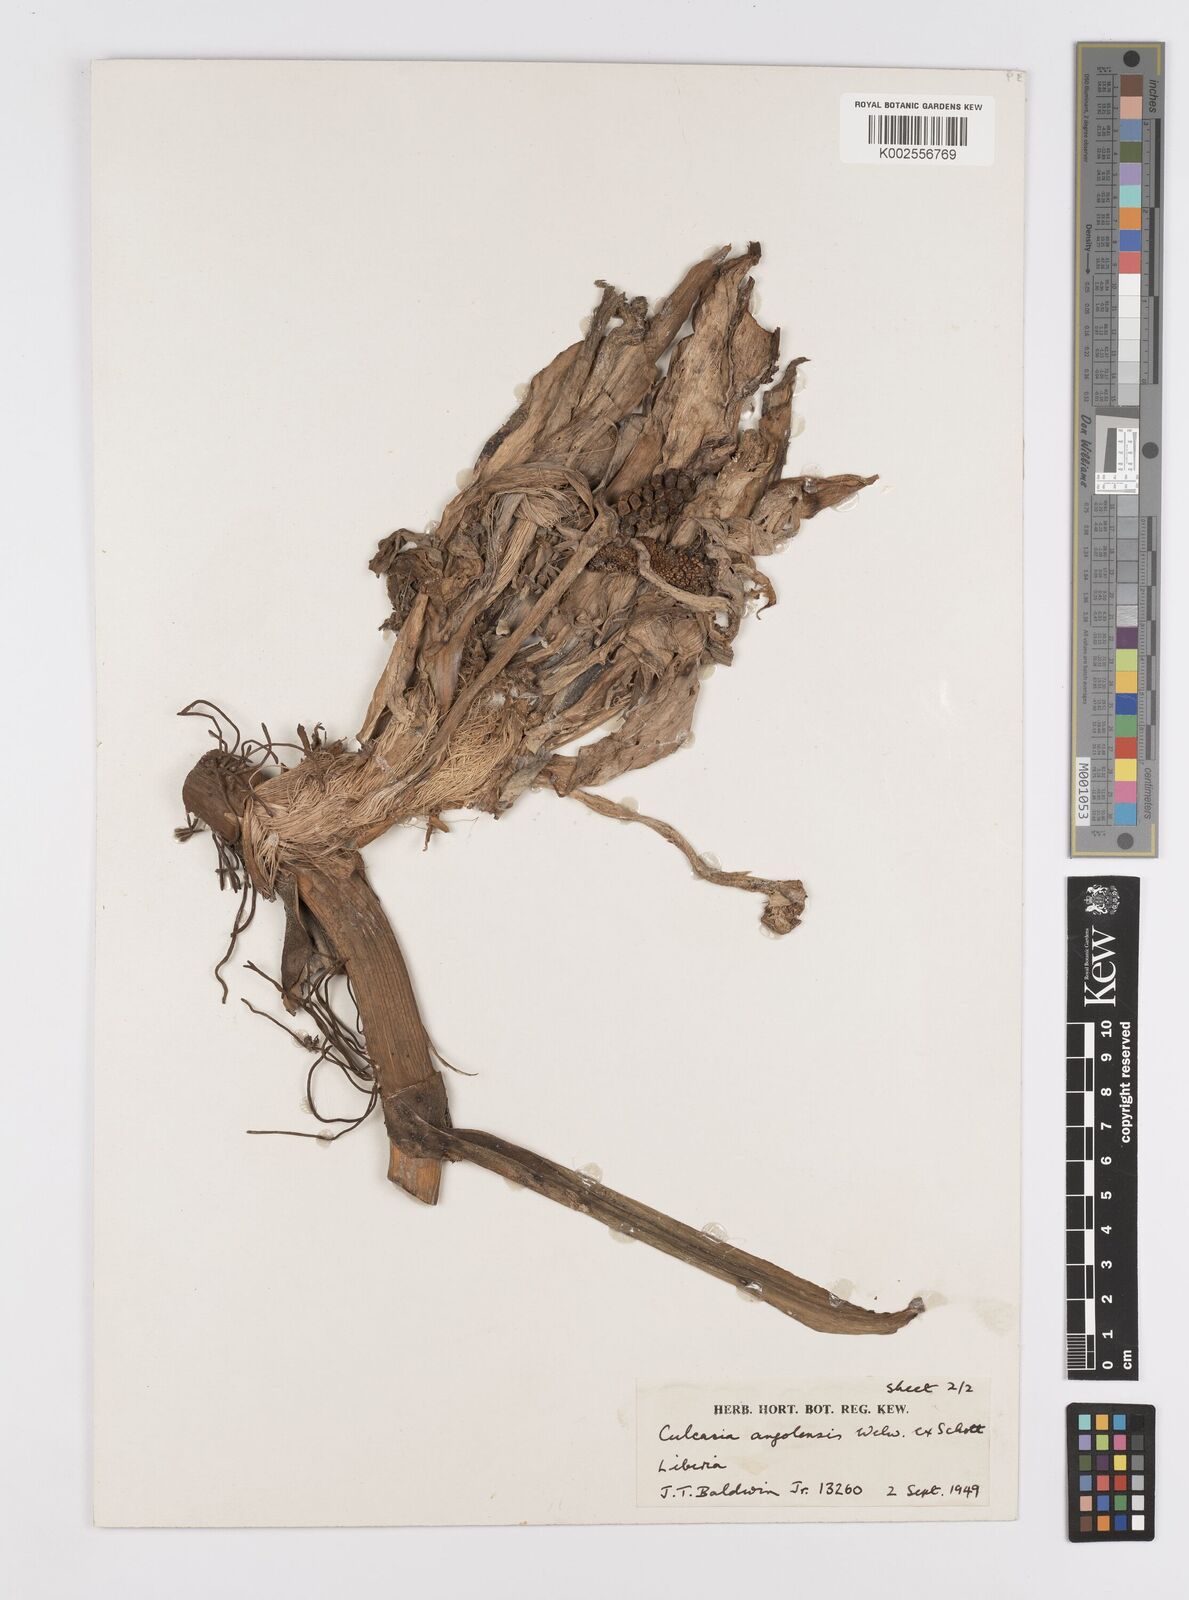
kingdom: Plantae
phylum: Tracheophyta
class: Liliopsida
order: Alismatales
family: Araceae
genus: Culcasia
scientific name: Culcasia angolensis
